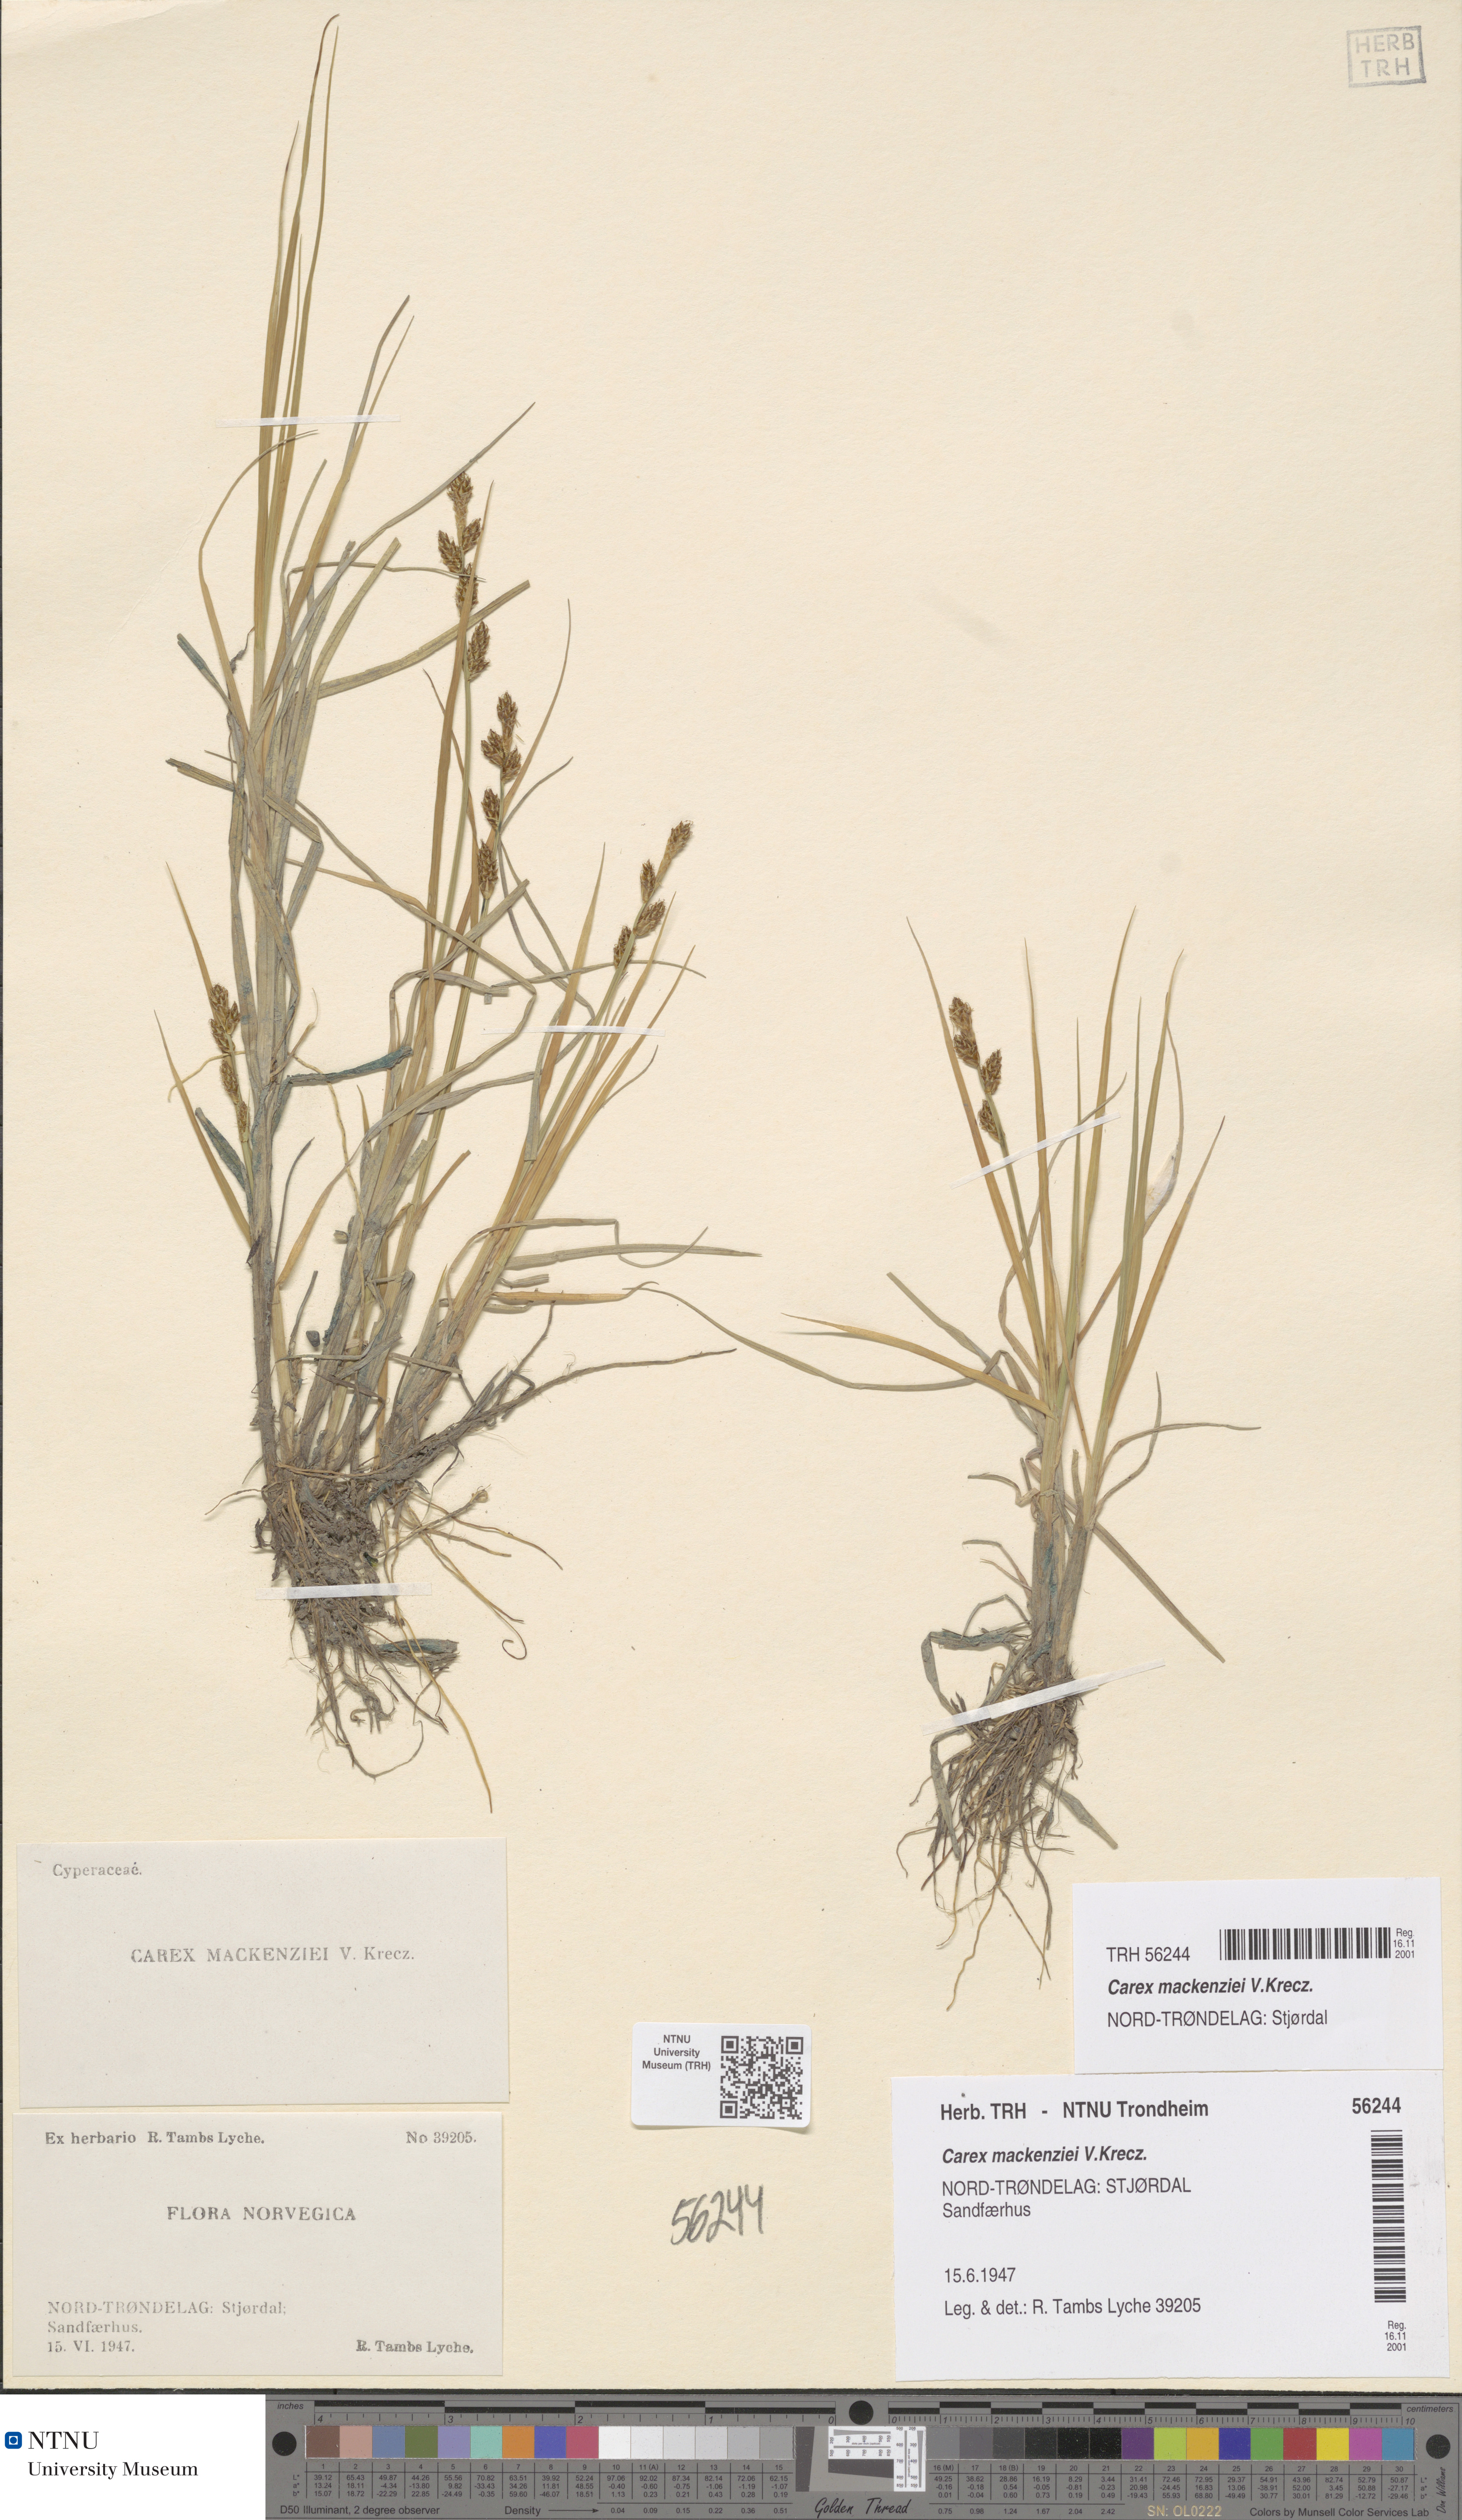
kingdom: Plantae
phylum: Tracheophyta
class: Liliopsida
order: Poales
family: Cyperaceae
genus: Carex
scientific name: Carex mackenziei
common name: Mackenzie's sedge
